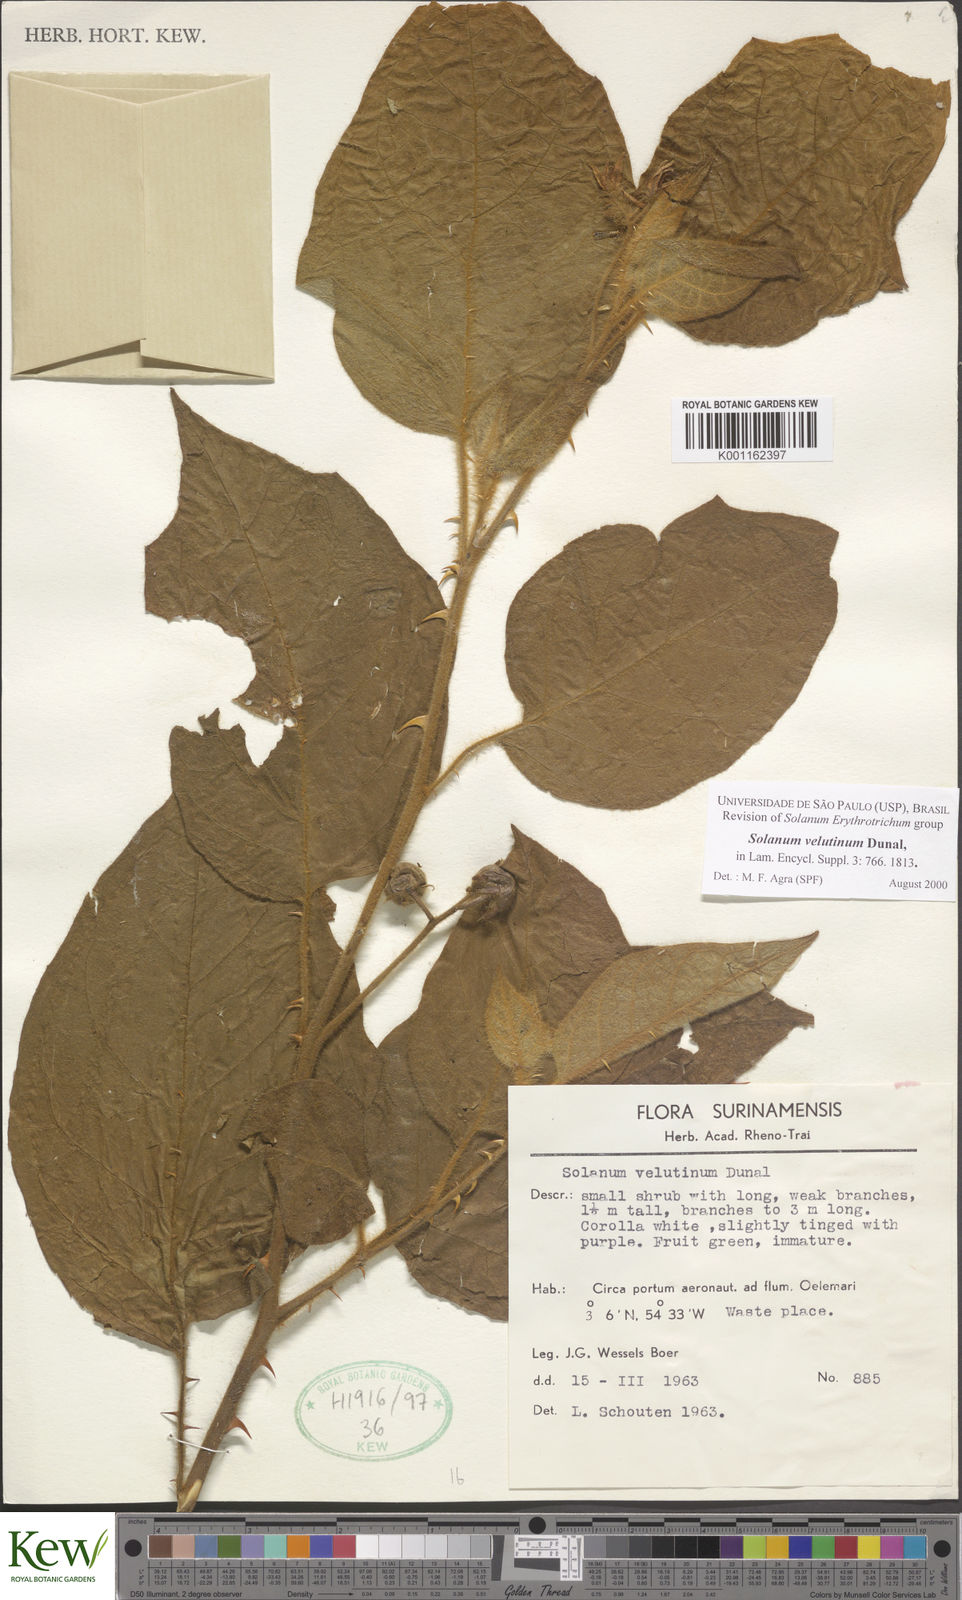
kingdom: Plantae
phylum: Tracheophyta
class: Magnoliopsida
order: Solanales
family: Solanaceae
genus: Solanum
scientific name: Solanum velutinum
